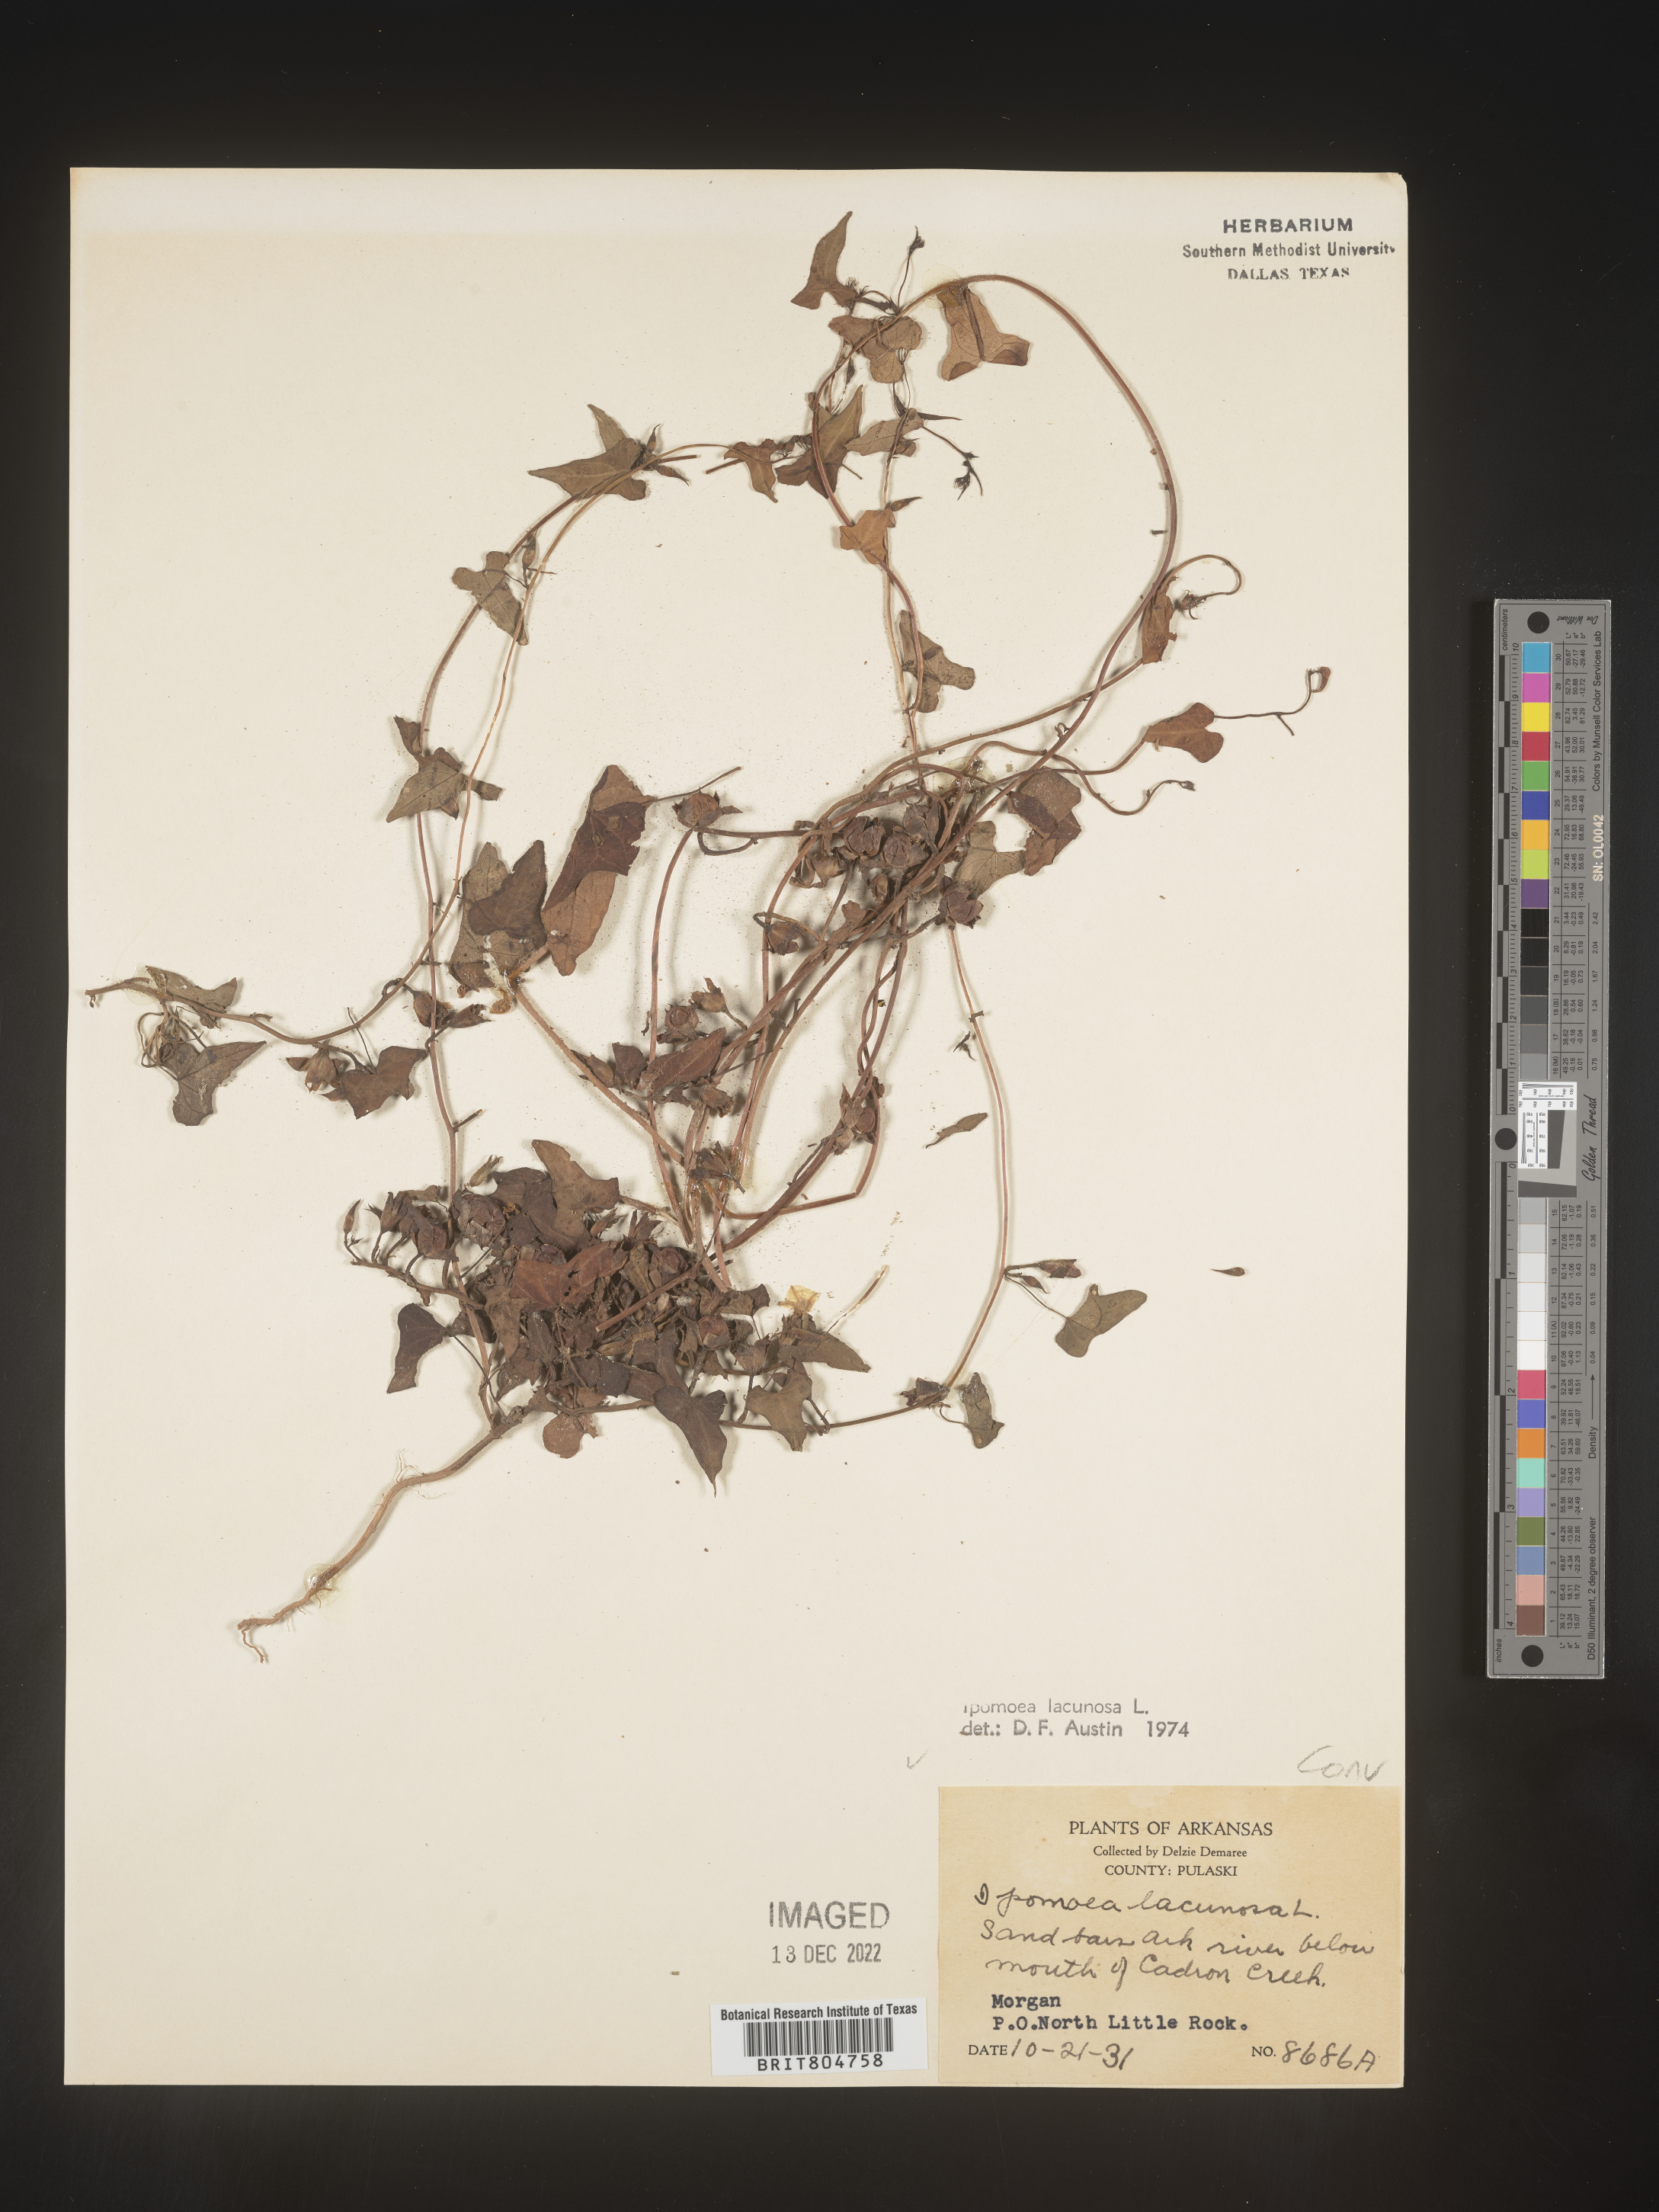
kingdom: Plantae
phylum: Tracheophyta
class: Magnoliopsida
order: Solanales
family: Convolvulaceae
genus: Ipomoea
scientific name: Ipomoea lacunosa
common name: White morning-glory
